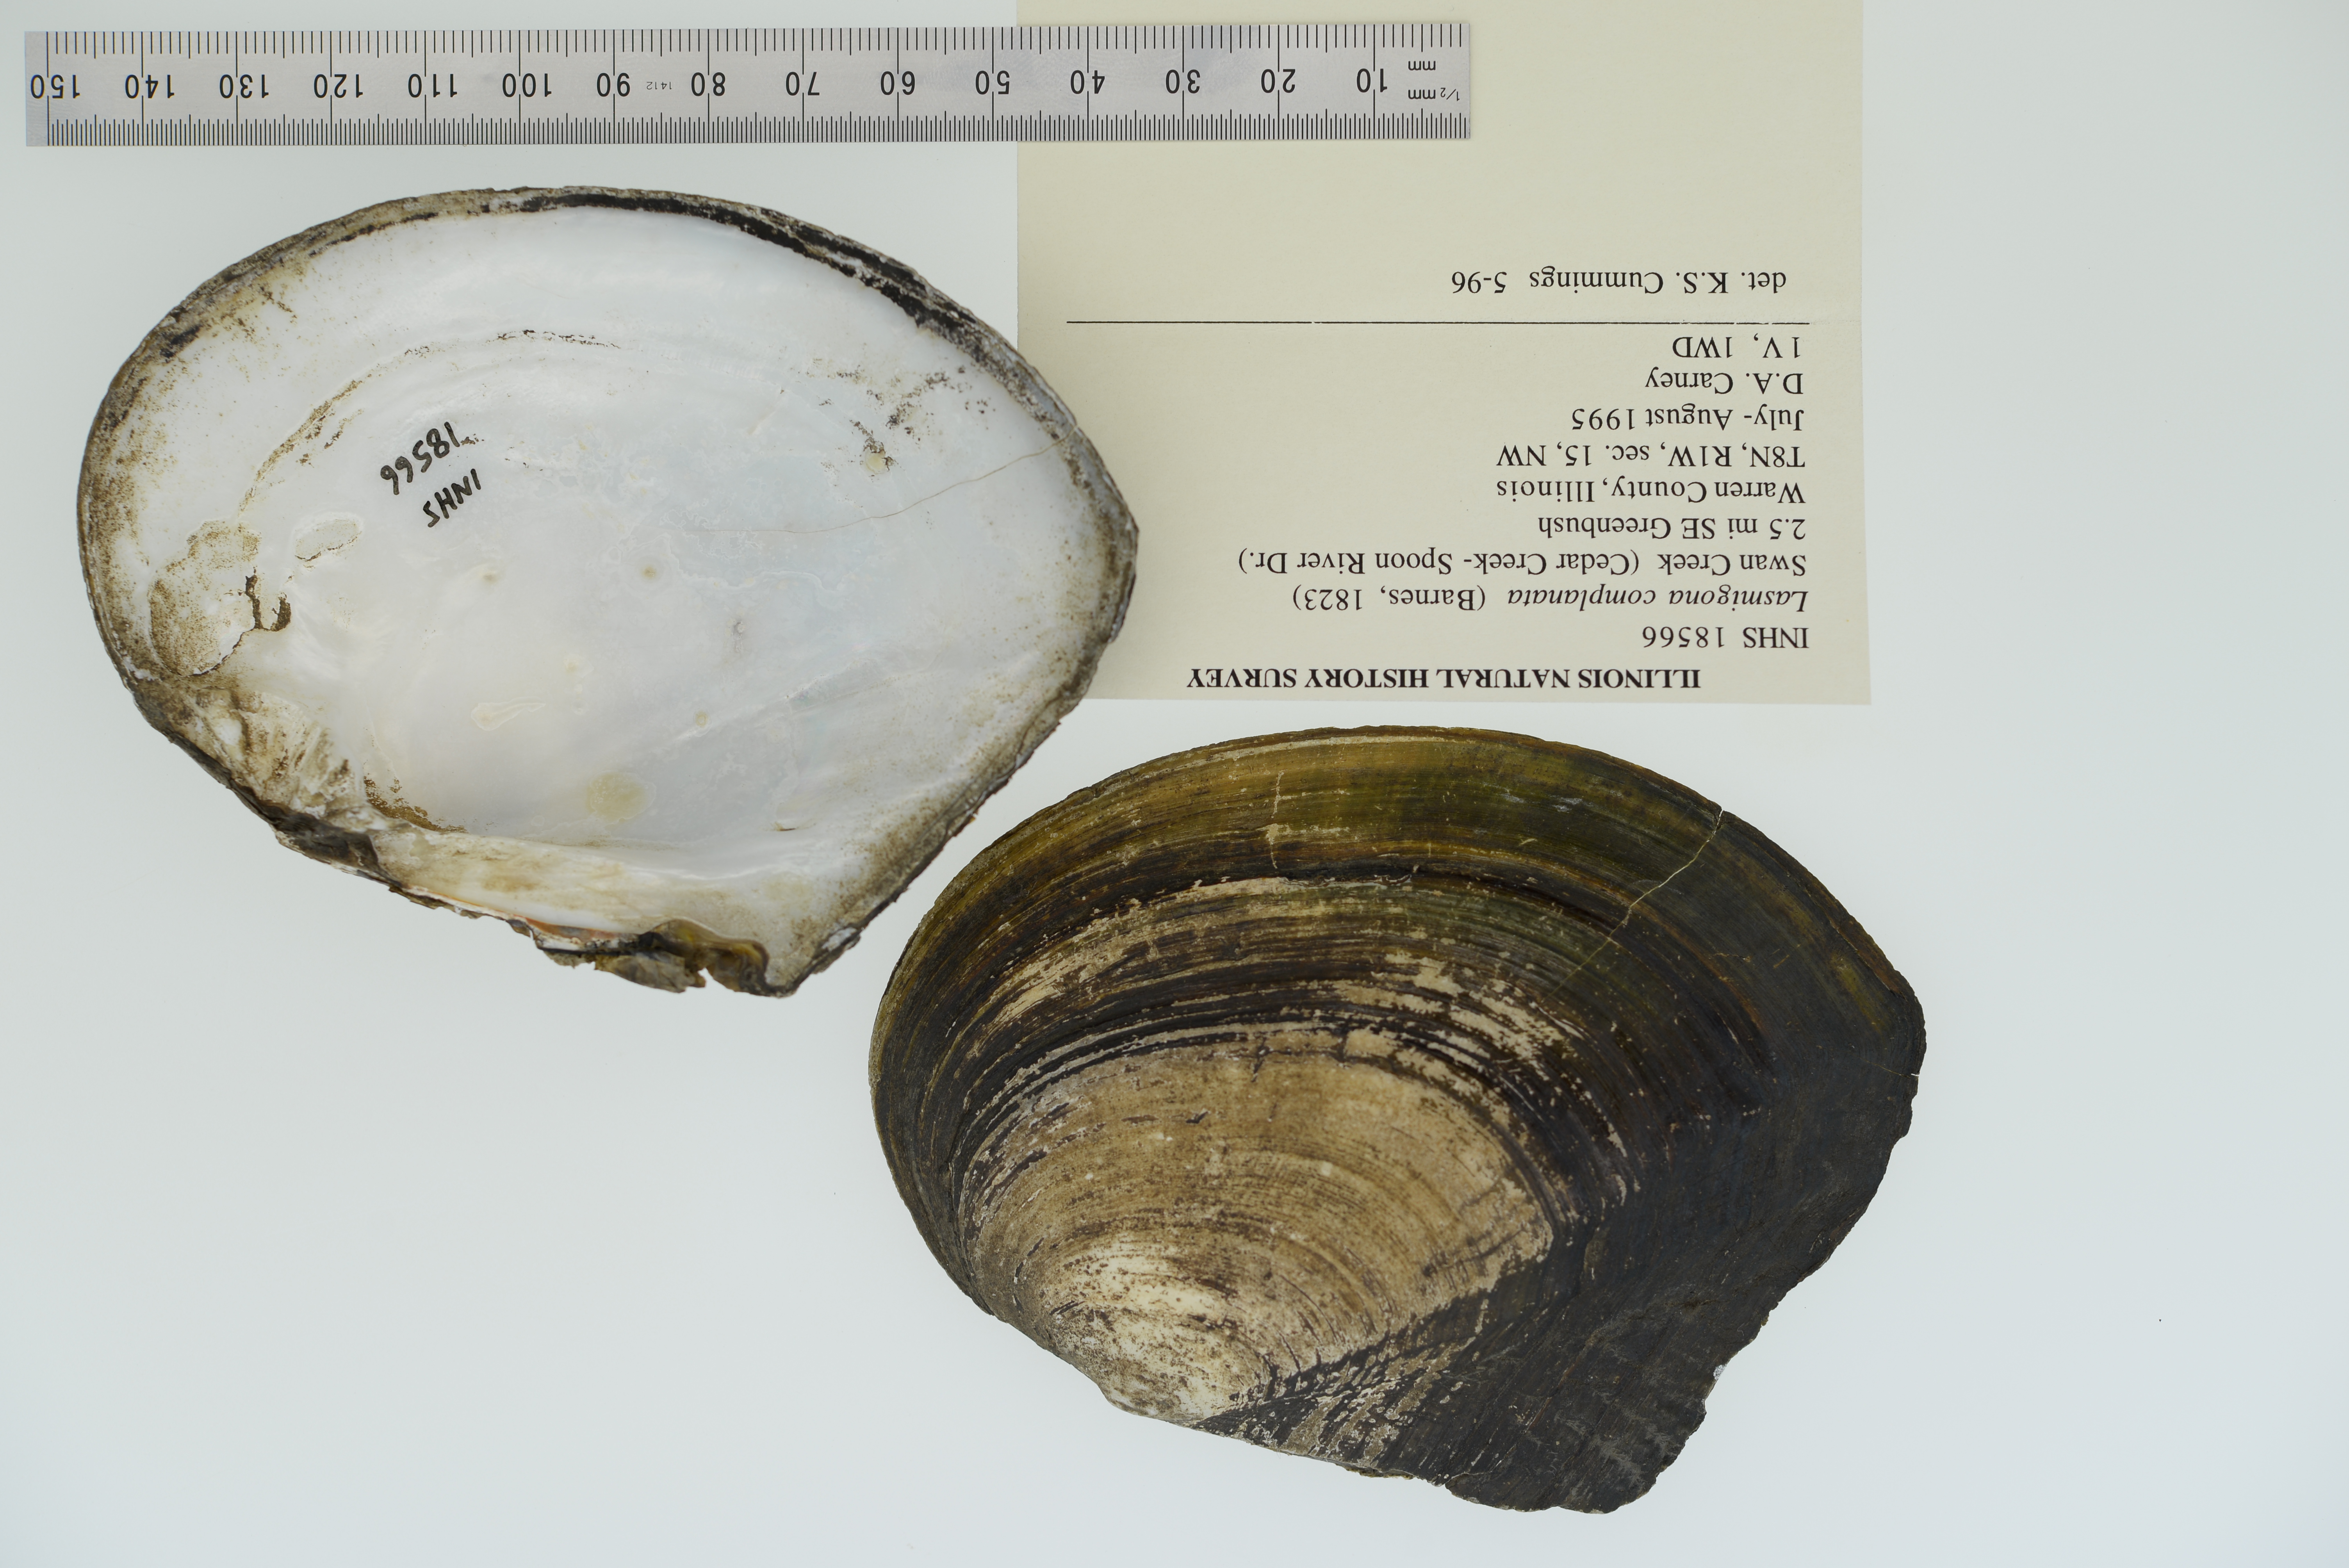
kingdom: Animalia
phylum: Mollusca
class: Bivalvia
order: Unionida
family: Unionidae
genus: Lasmigona
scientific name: Lasmigona complanata
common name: White heelsplitter
